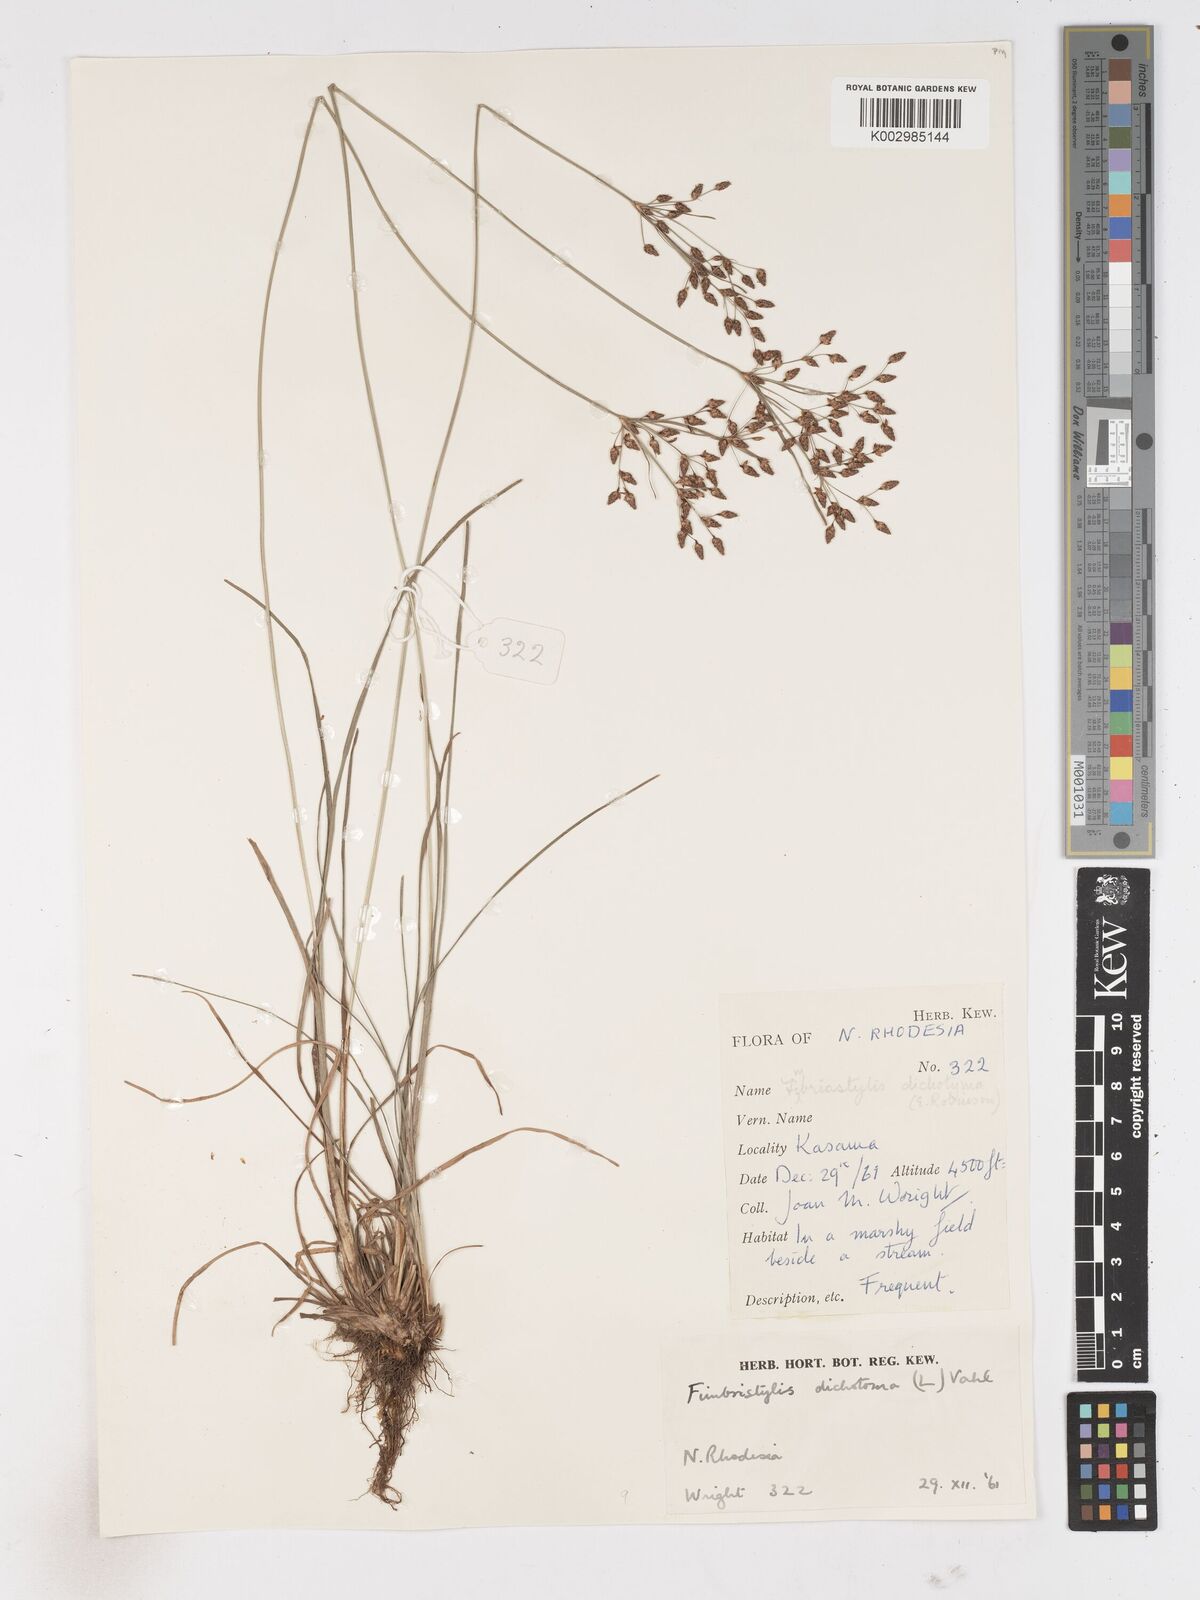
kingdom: Plantae
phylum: Tracheophyta
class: Liliopsida
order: Poales
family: Cyperaceae
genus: Fimbristylis
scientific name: Fimbristylis dichotoma
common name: Forked fimbry
